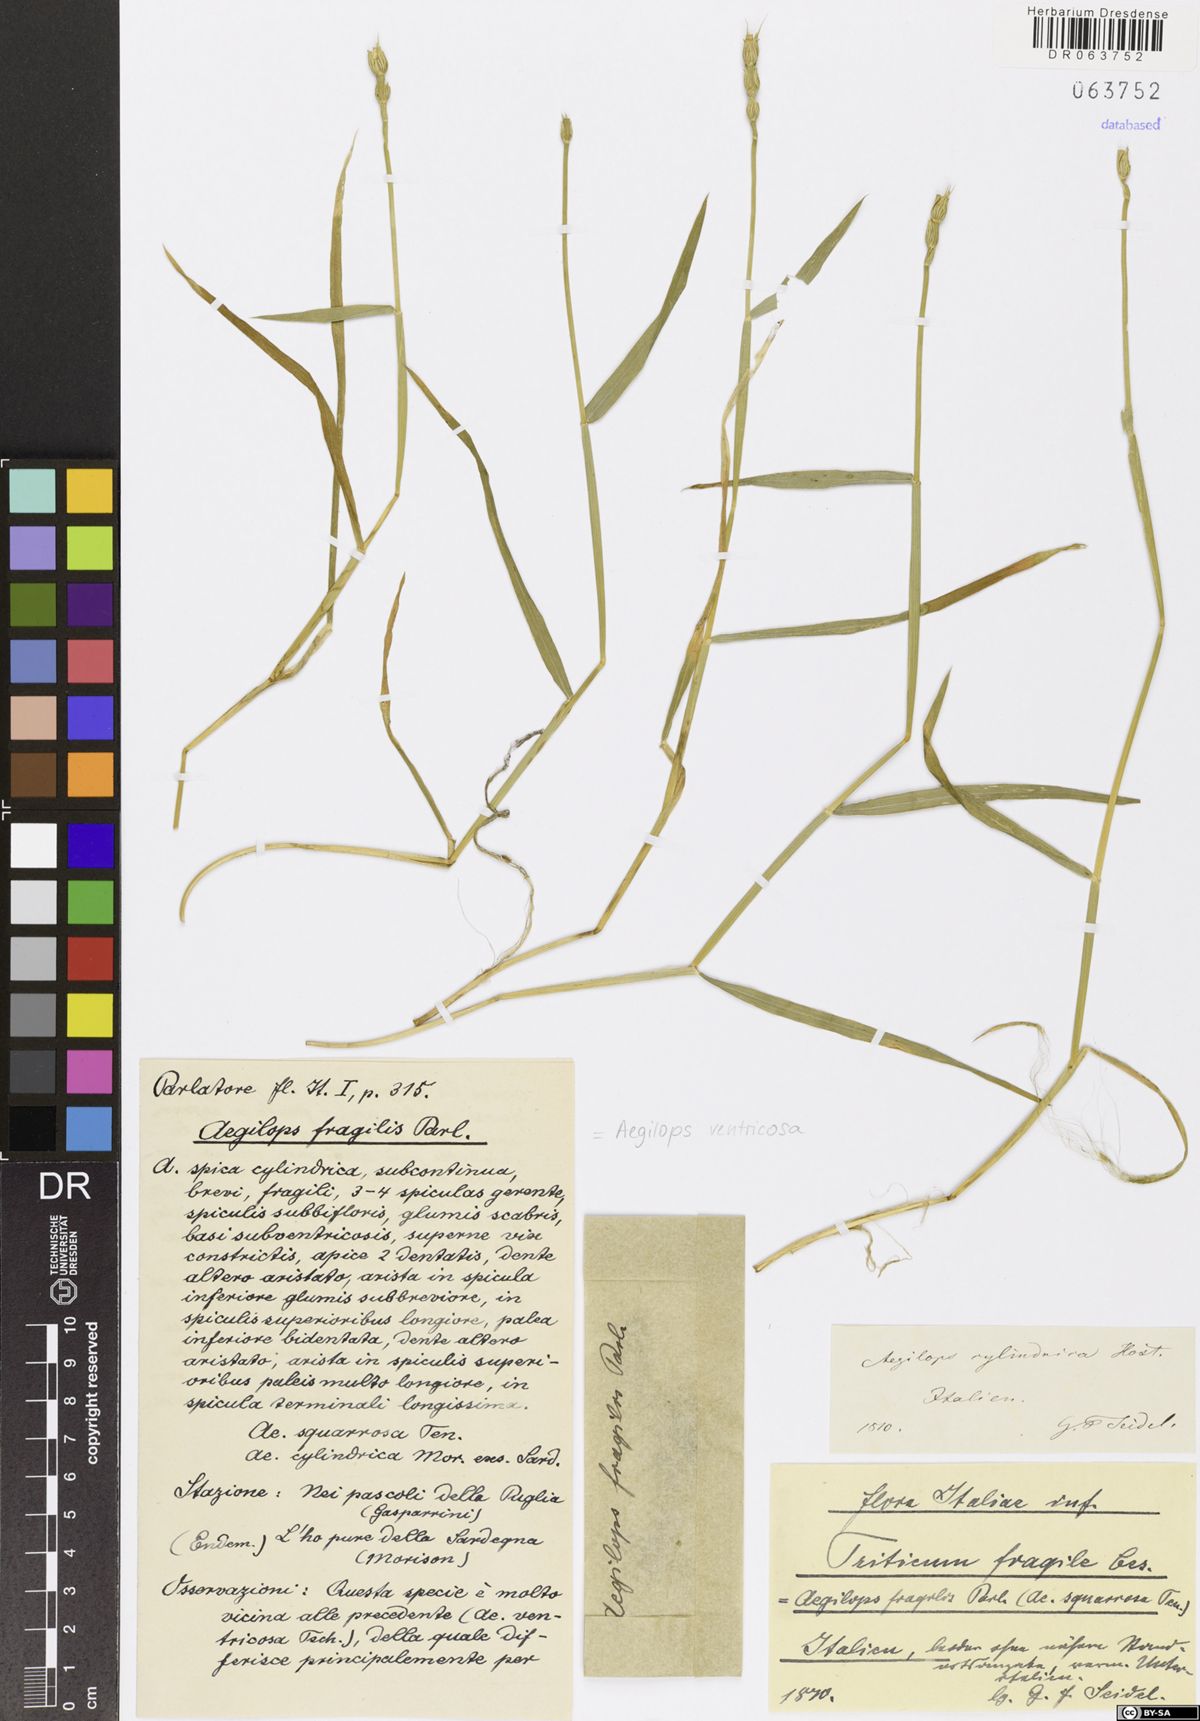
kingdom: Plantae
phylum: Tracheophyta
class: Liliopsida
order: Poales
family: Poaceae
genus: Aegilops
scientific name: Aegilops ventricosa
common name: Swollen goat grass
